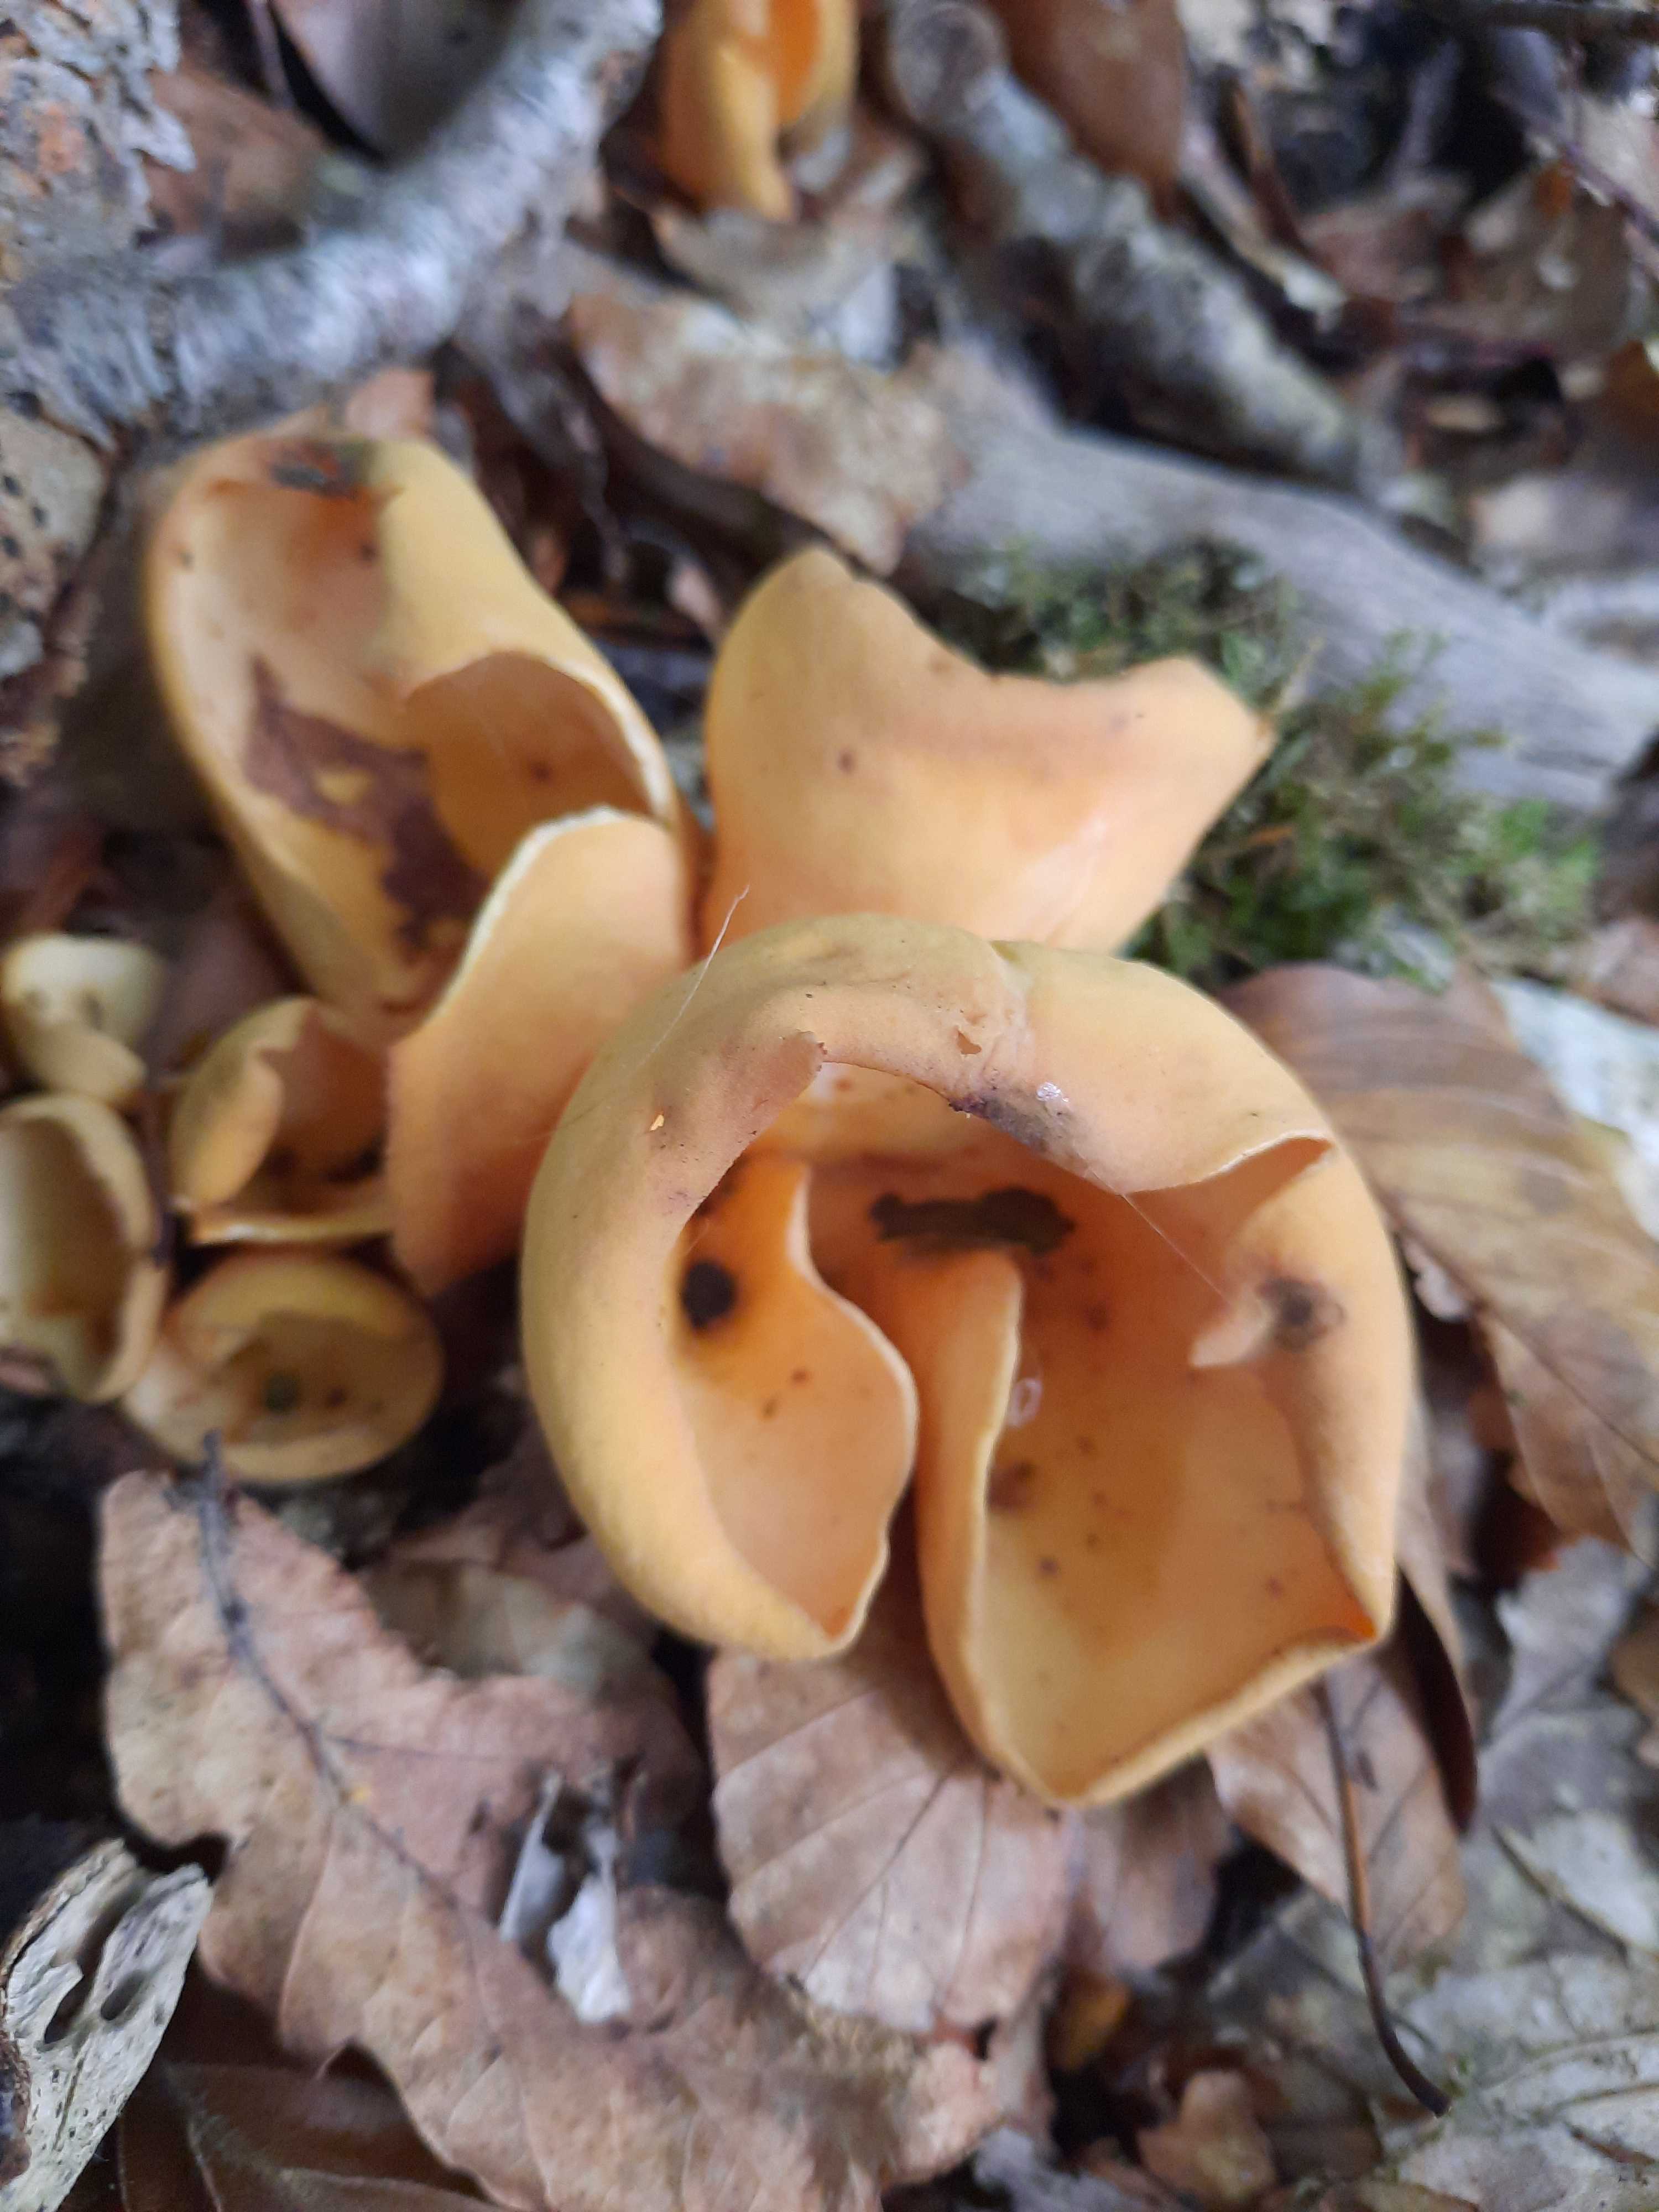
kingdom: Fungi
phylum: Ascomycota
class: Pezizomycetes
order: Pezizales
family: Otideaceae
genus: Otidea
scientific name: Otidea onotica
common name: æsel-ørebæger
